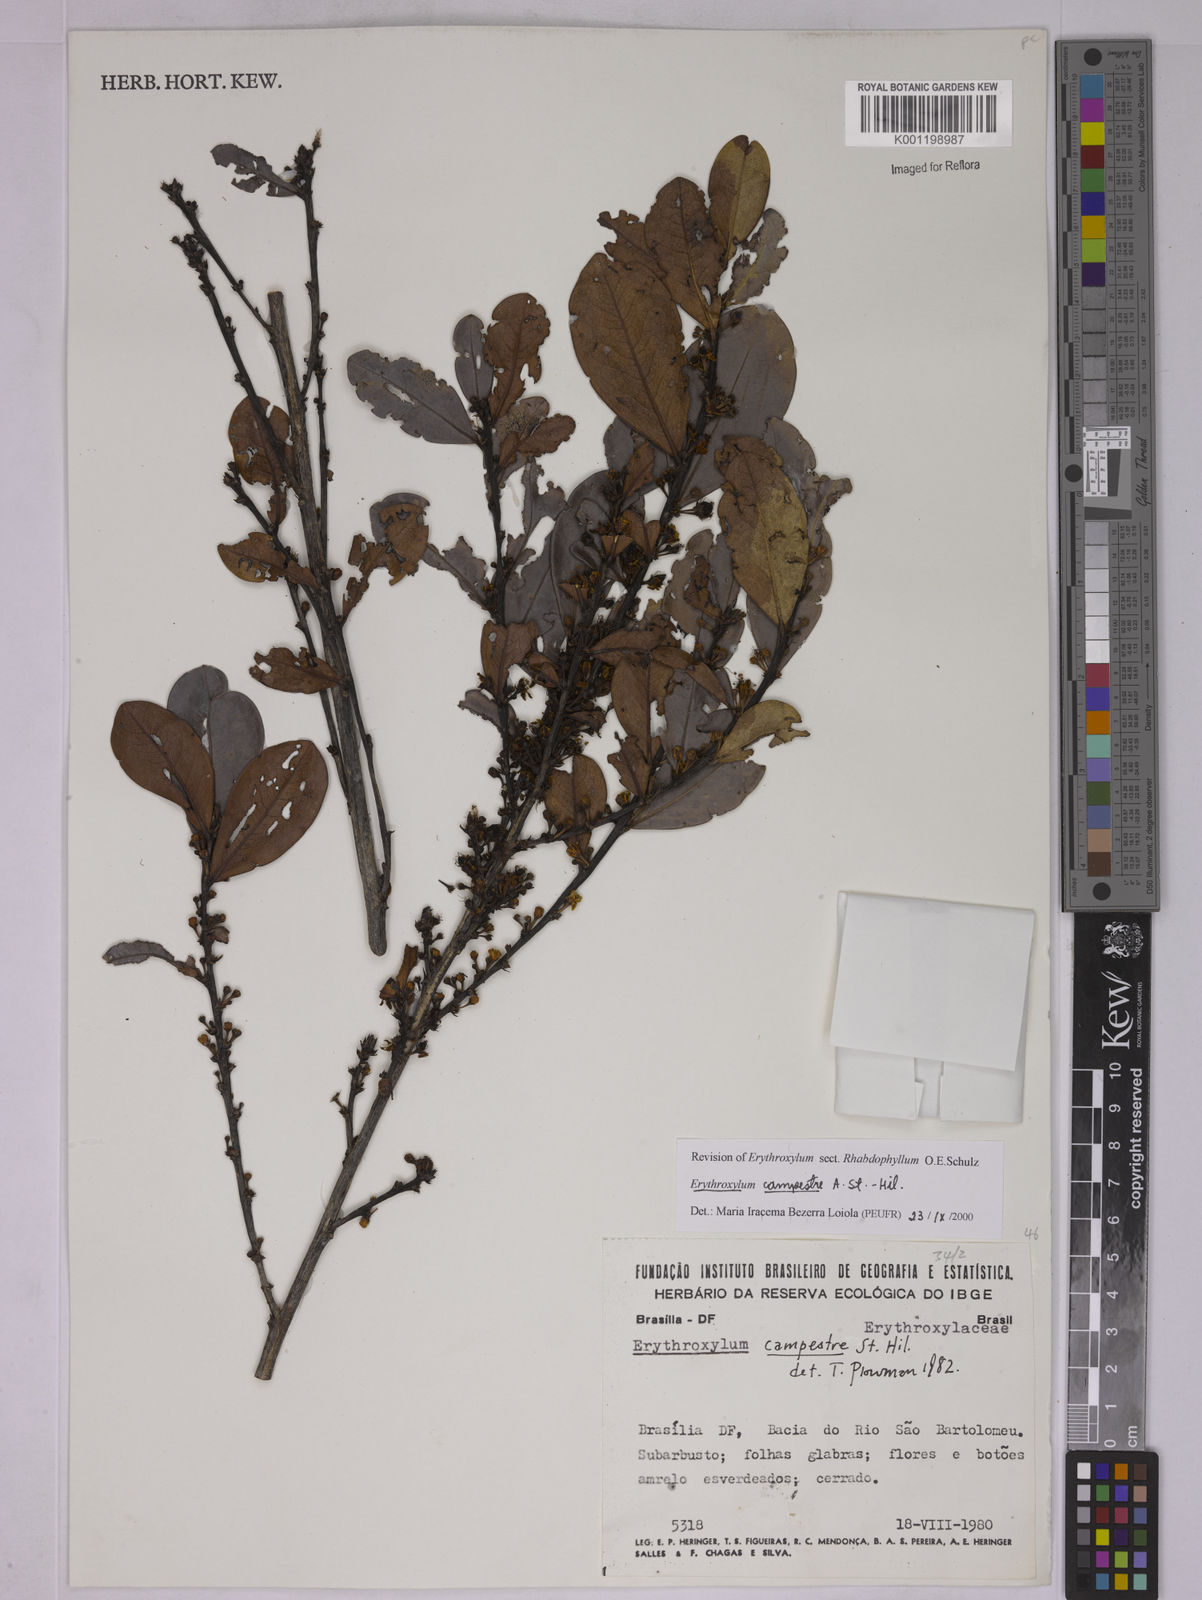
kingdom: Plantae
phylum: Tracheophyta
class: Magnoliopsida
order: Malpighiales
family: Erythroxylaceae
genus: Erythroxylum
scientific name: Erythroxylum campestre
